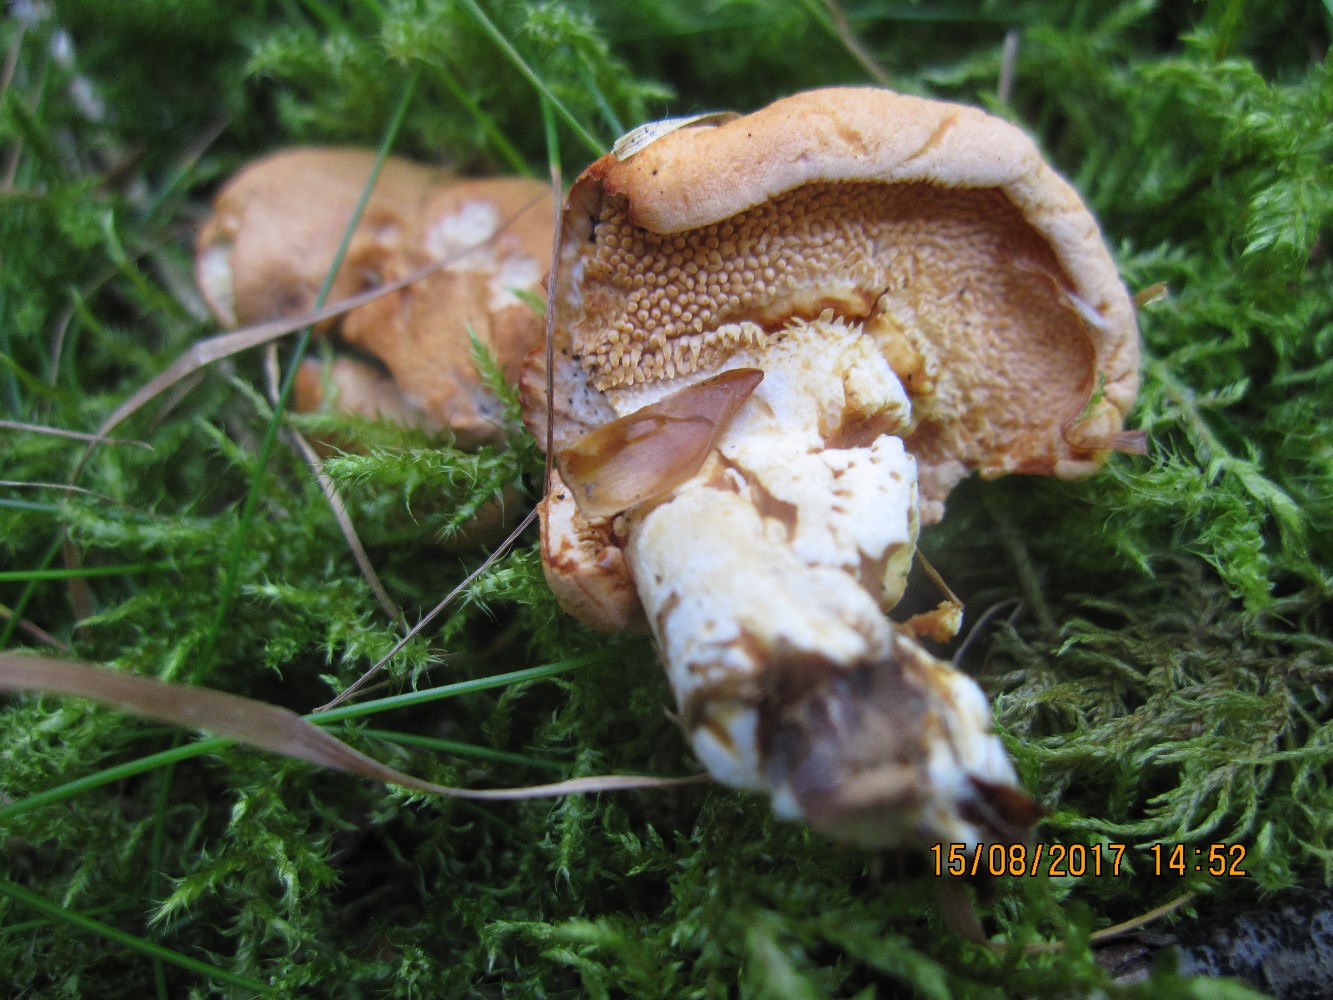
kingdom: Fungi
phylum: Basidiomycota
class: Agaricomycetes
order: Cantharellales
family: Hydnaceae
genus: Hydnum
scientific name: Hydnum ellipsosporum
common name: tandet pigsvamp
